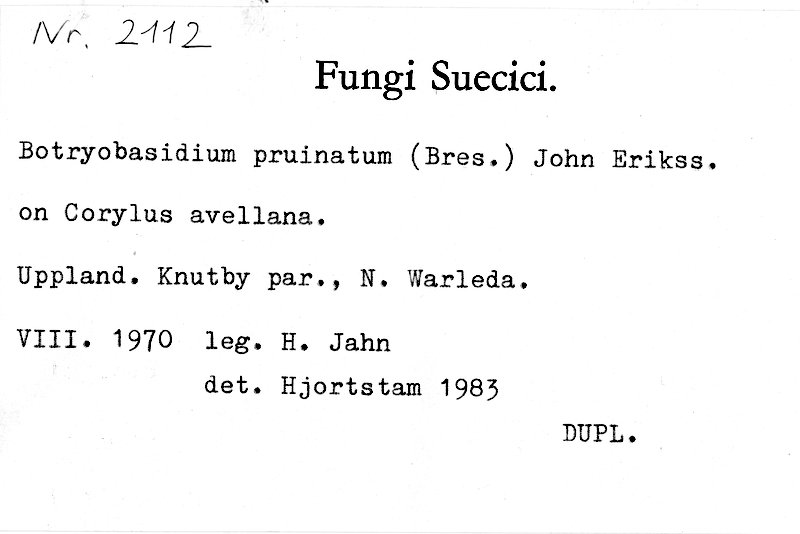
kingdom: Plantae
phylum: Tracheophyta
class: Magnoliopsida
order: Fagales
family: Betulaceae
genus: Corylus
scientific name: Corylus avellana
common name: European hazel
